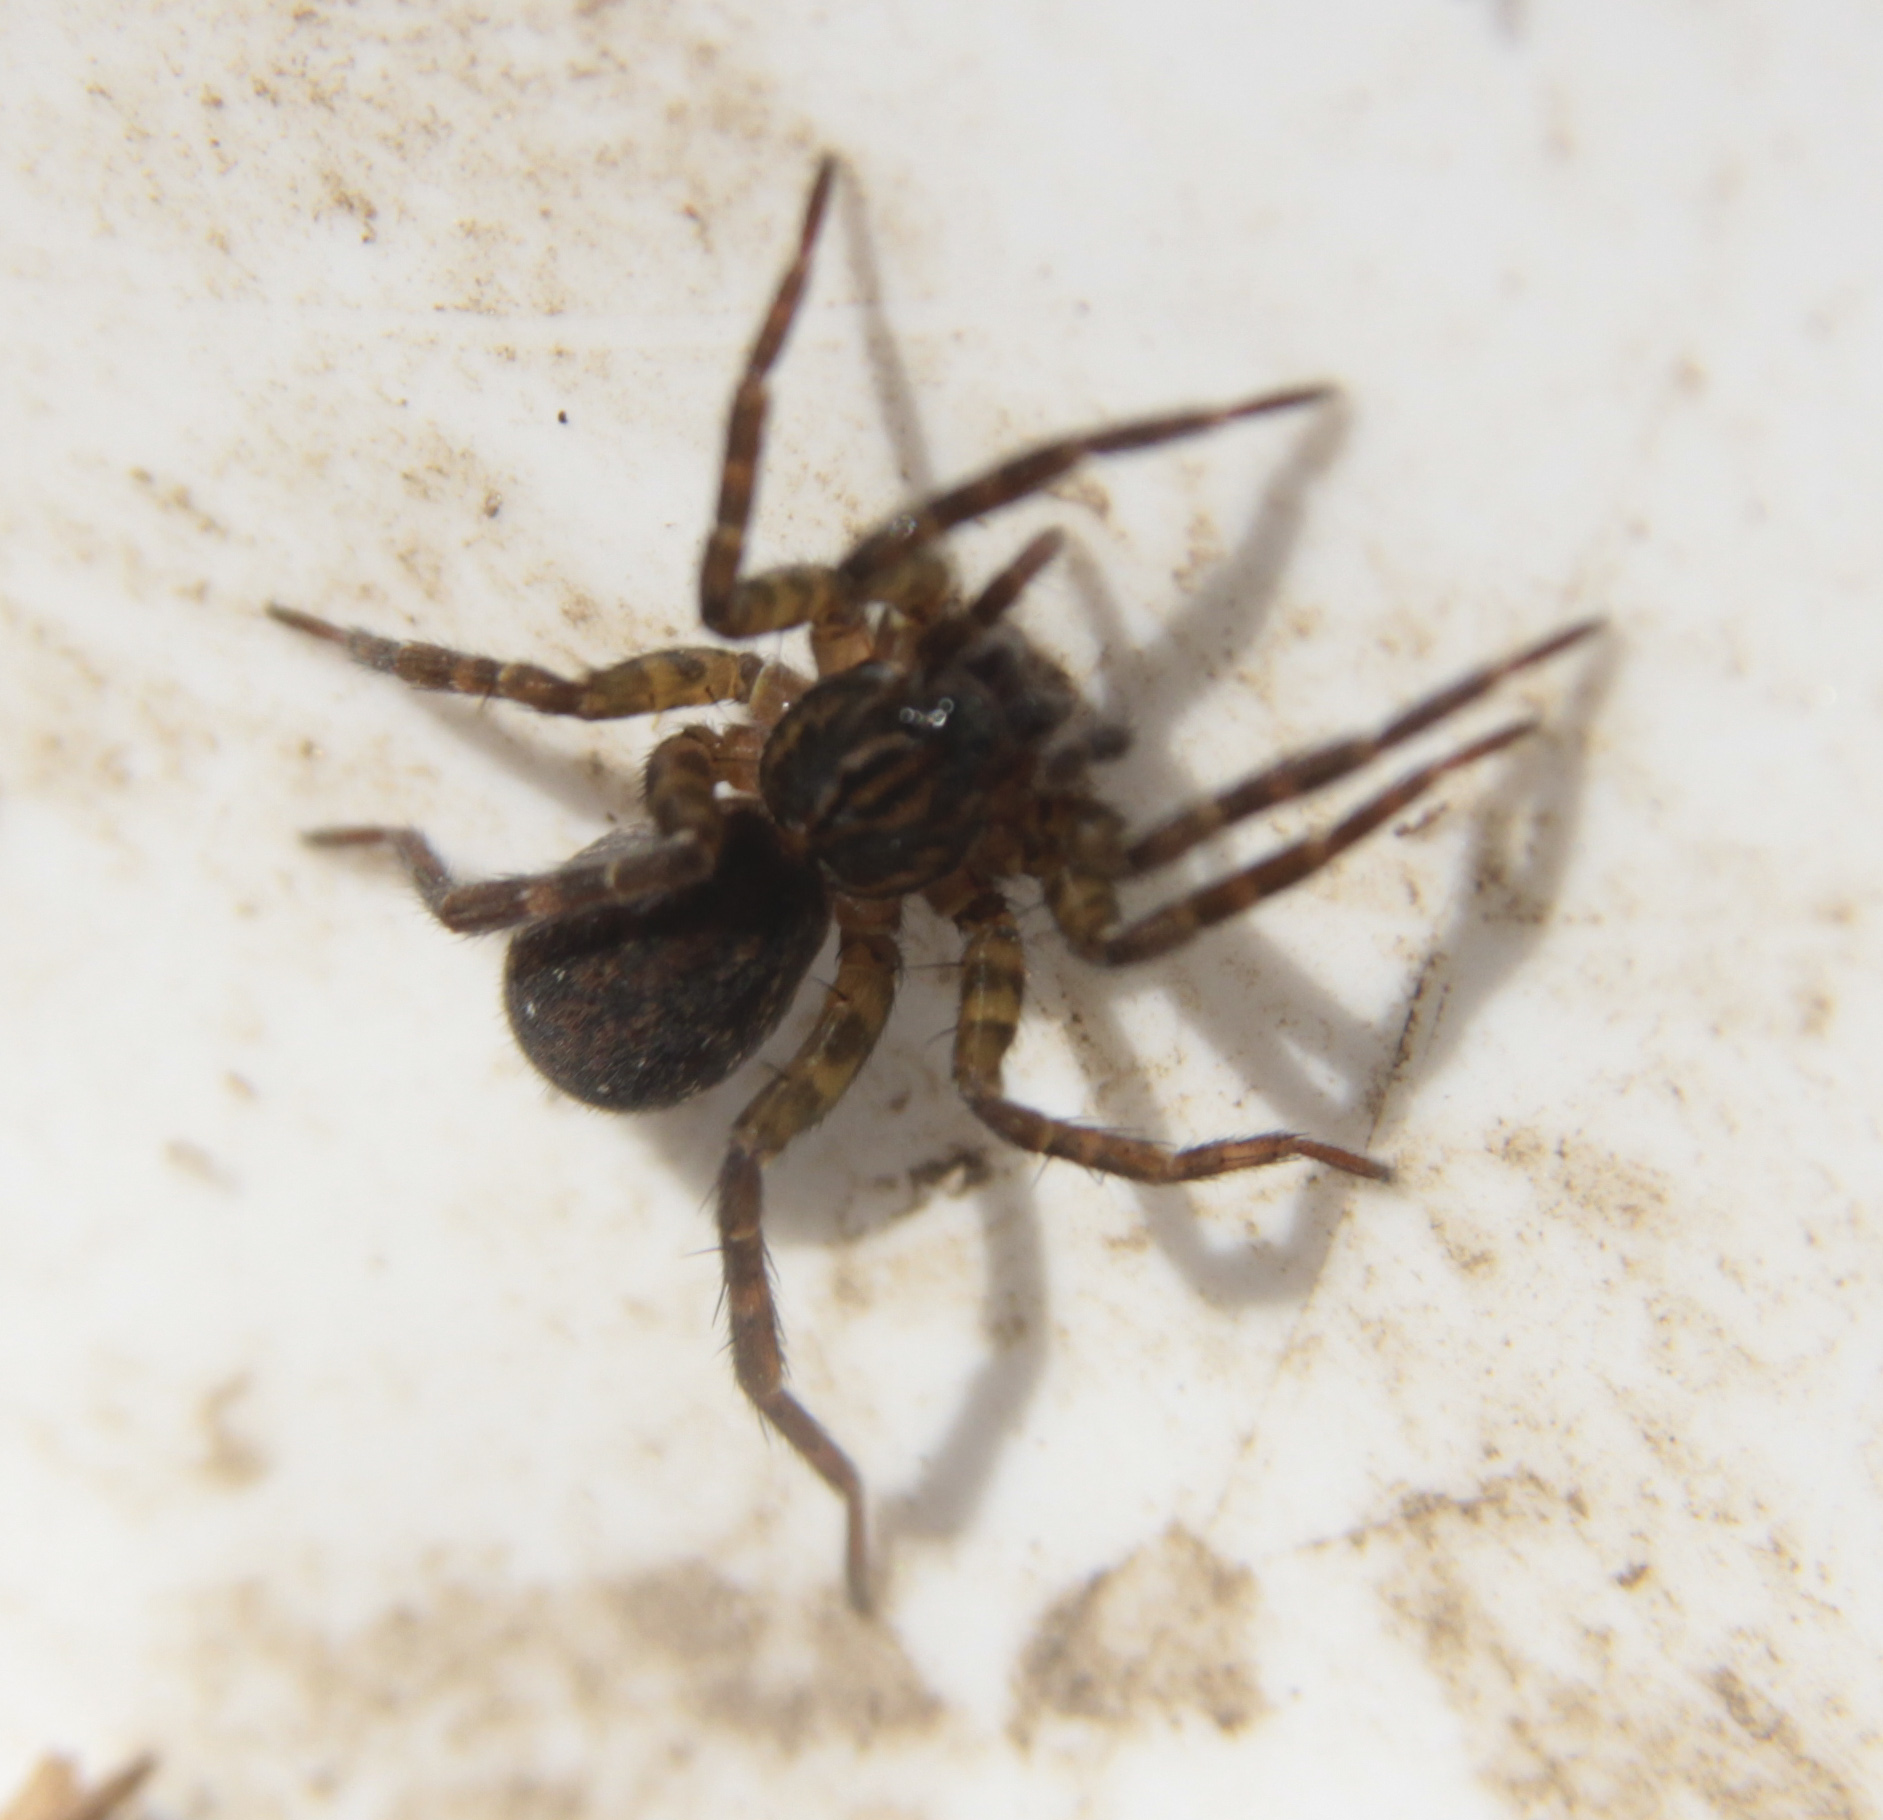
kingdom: Animalia
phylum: Arthropoda
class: Arachnida
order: Araneae
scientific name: Araneae
